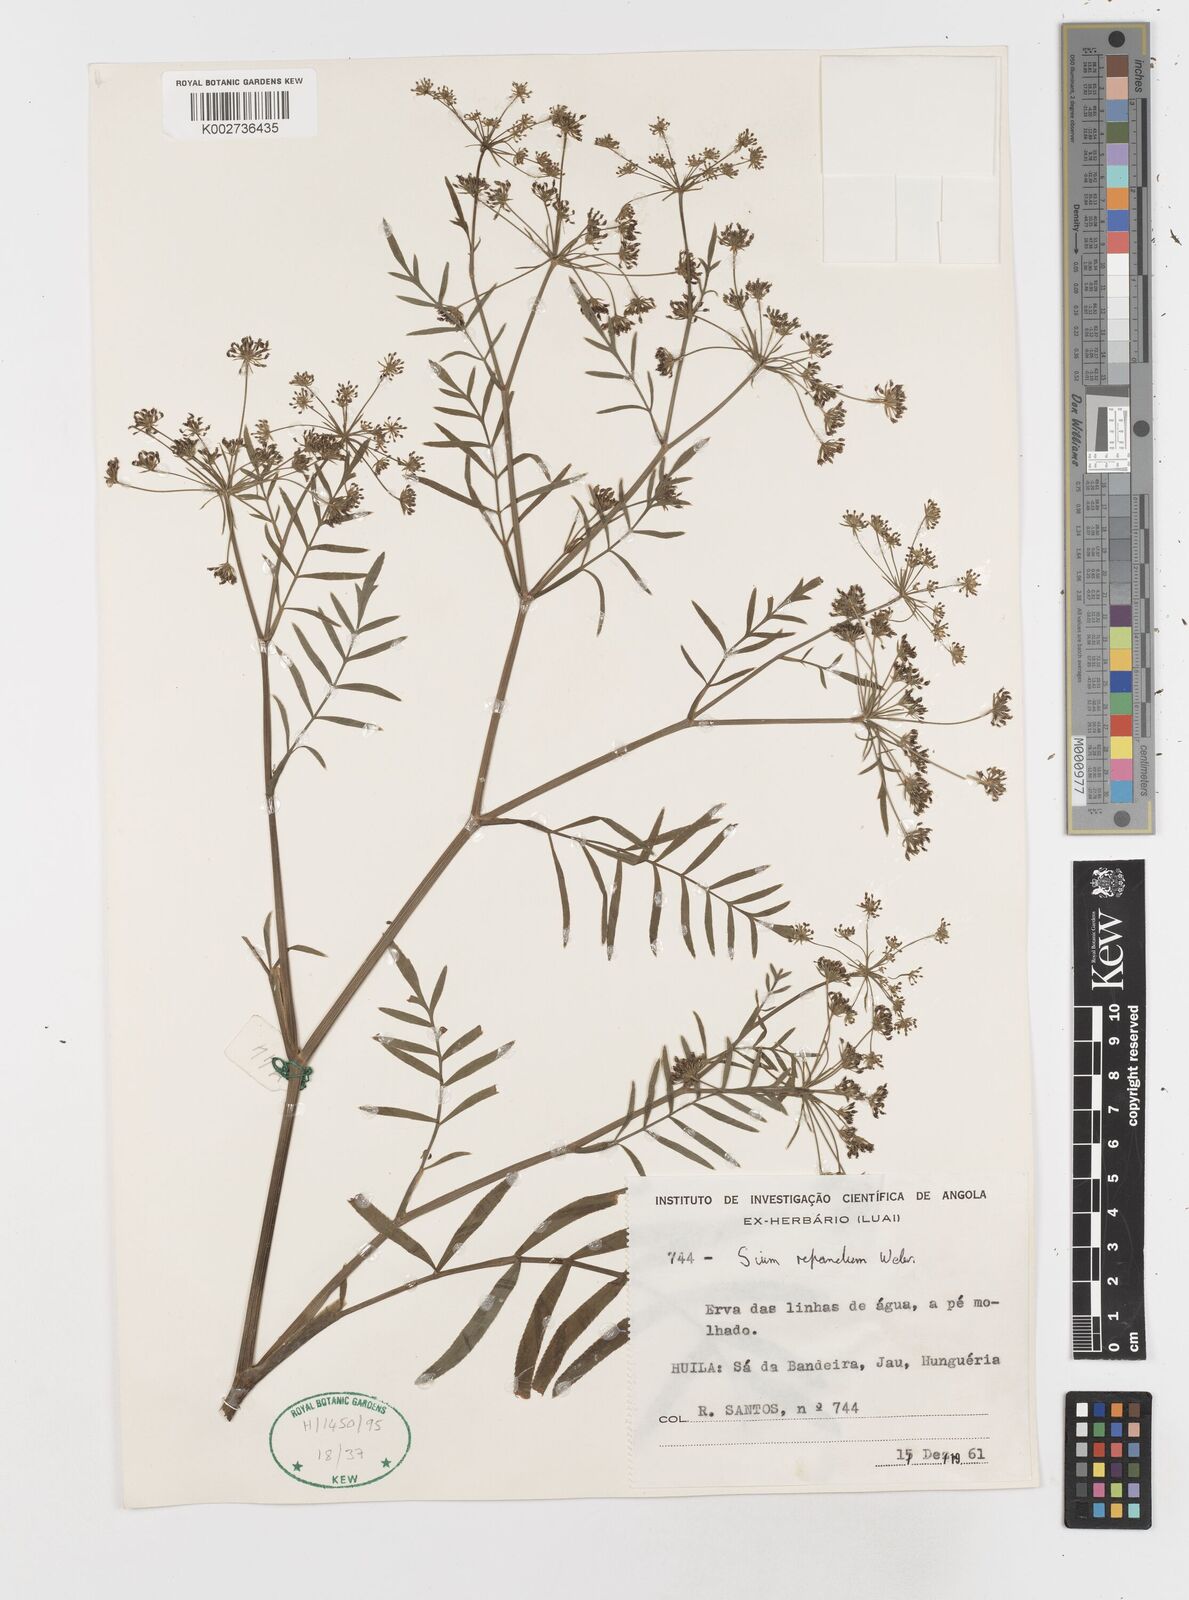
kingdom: Plantae
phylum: Tracheophyta
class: Magnoliopsida
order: Apiales
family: Apiaceae
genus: Berula
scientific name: Berula repanda
